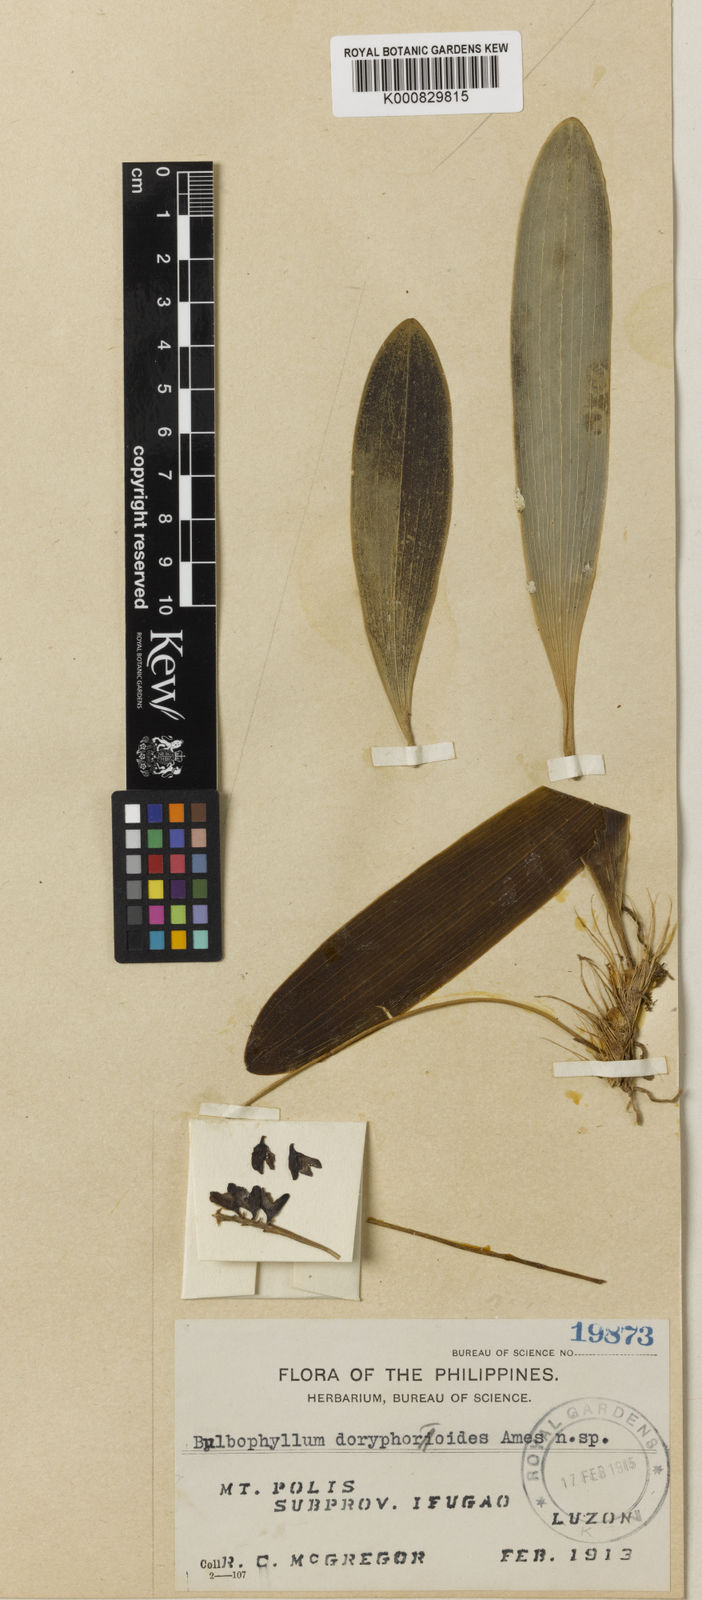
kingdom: Plantae
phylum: Tracheophyta
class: Liliopsida
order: Asparagales
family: Orchidaceae
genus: Bulbophyllum
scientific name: Bulbophyllum doryphoroide
